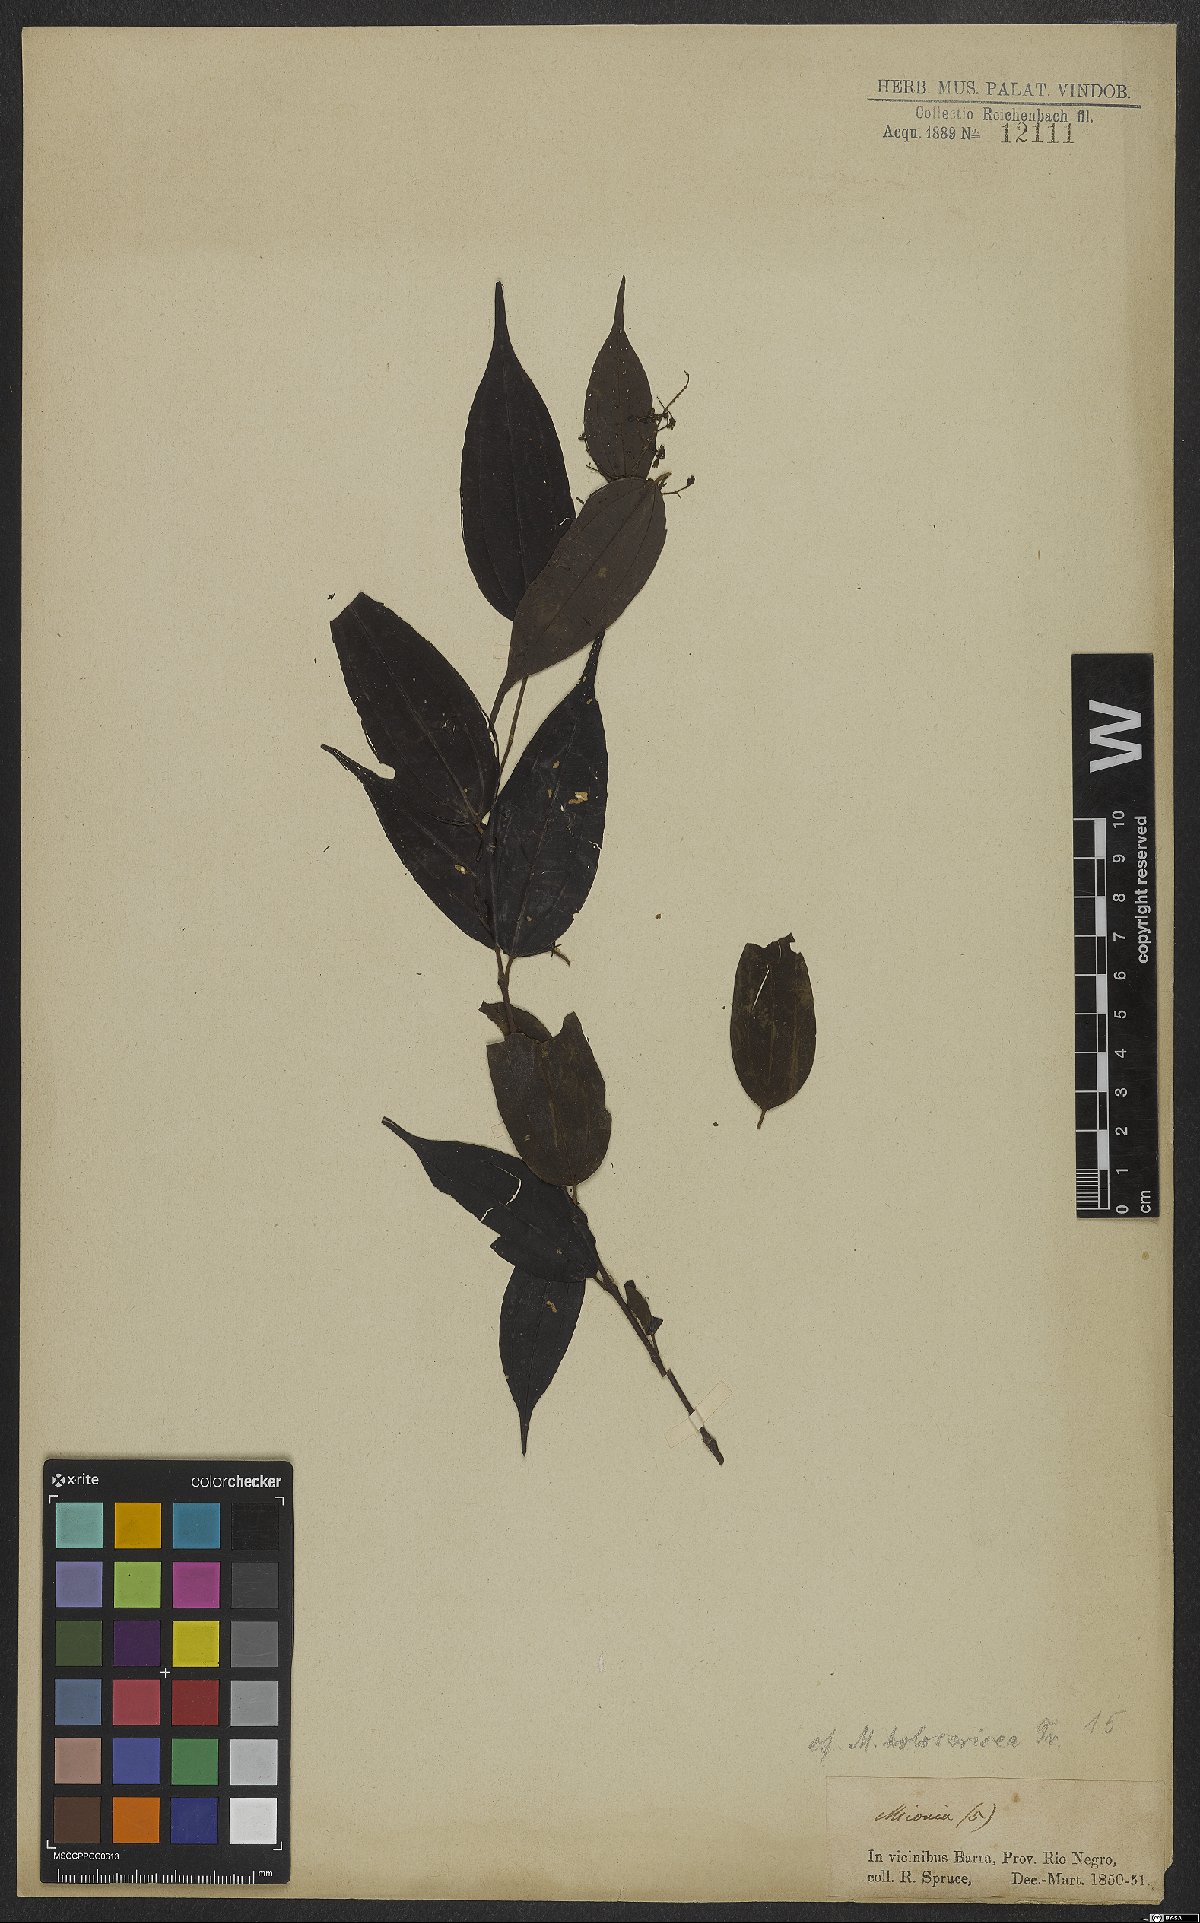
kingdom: Plantae
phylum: Tracheophyta
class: Magnoliopsida
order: Myrtales
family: Melastomataceae
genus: Miconia
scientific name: Miconia
